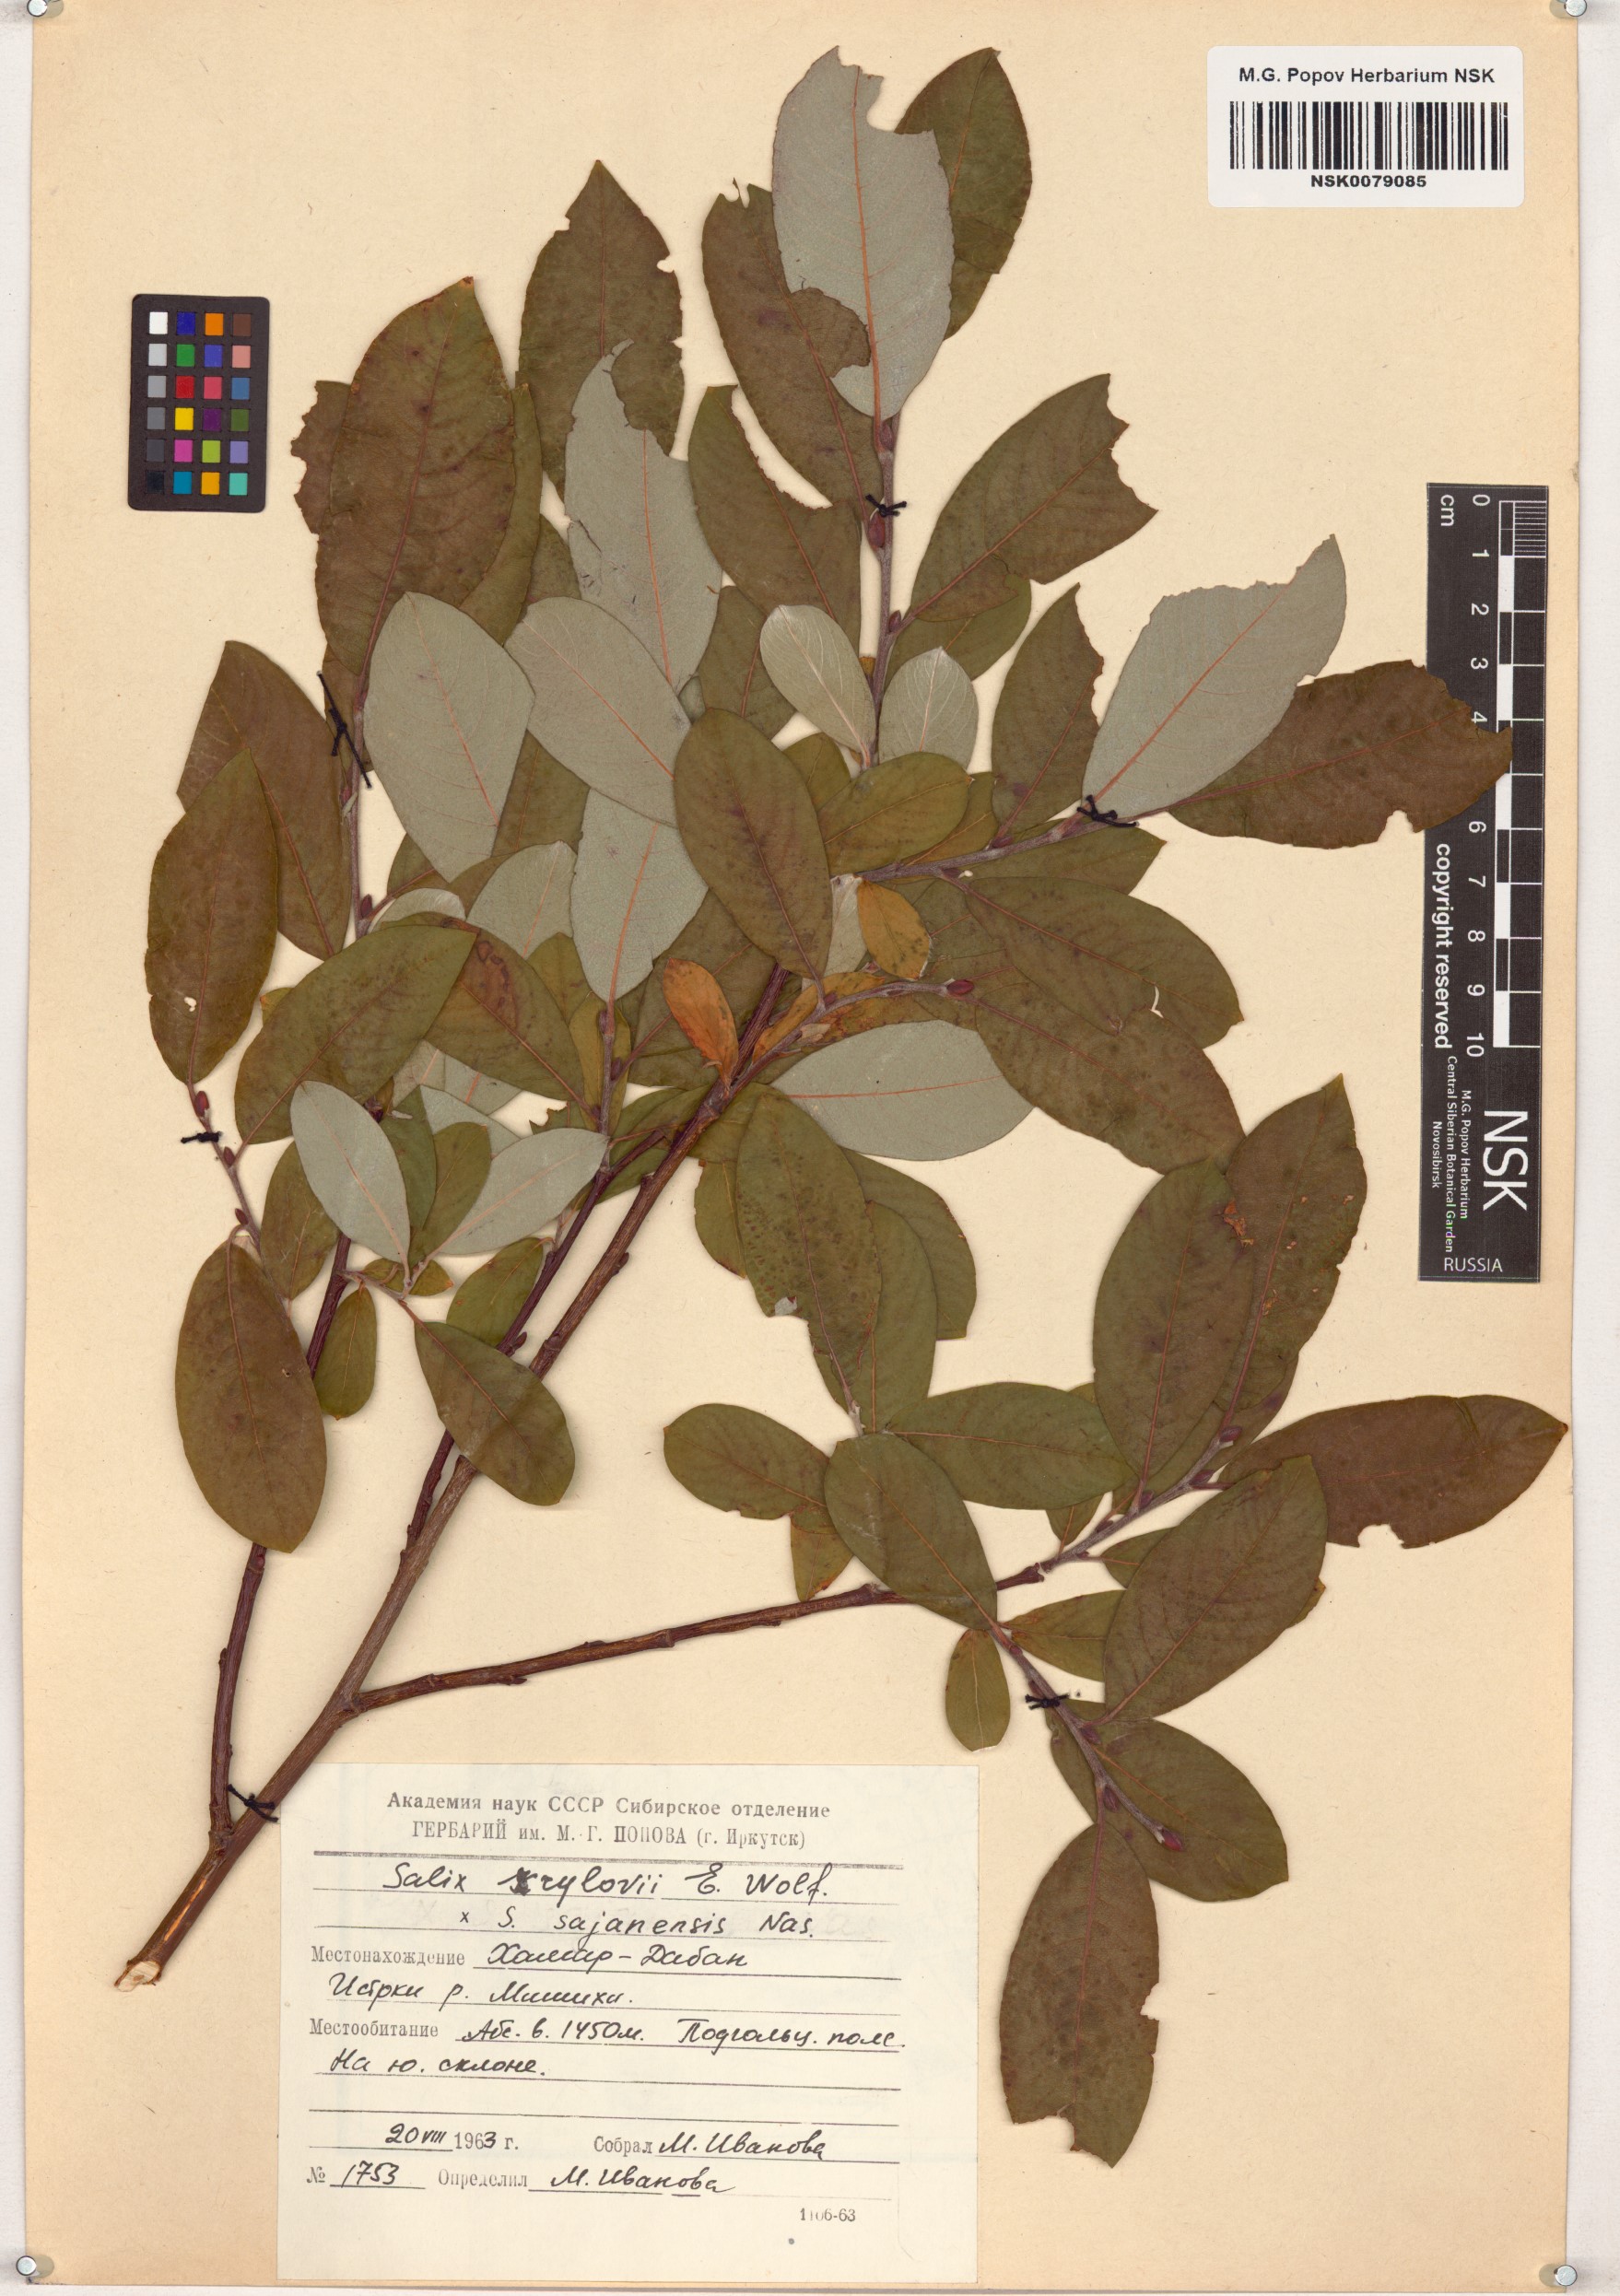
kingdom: Plantae
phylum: Tracheophyta
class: Magnoliopsida
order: Malpighiales
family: Salicaceae
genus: Salix
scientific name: Salix krylovii
